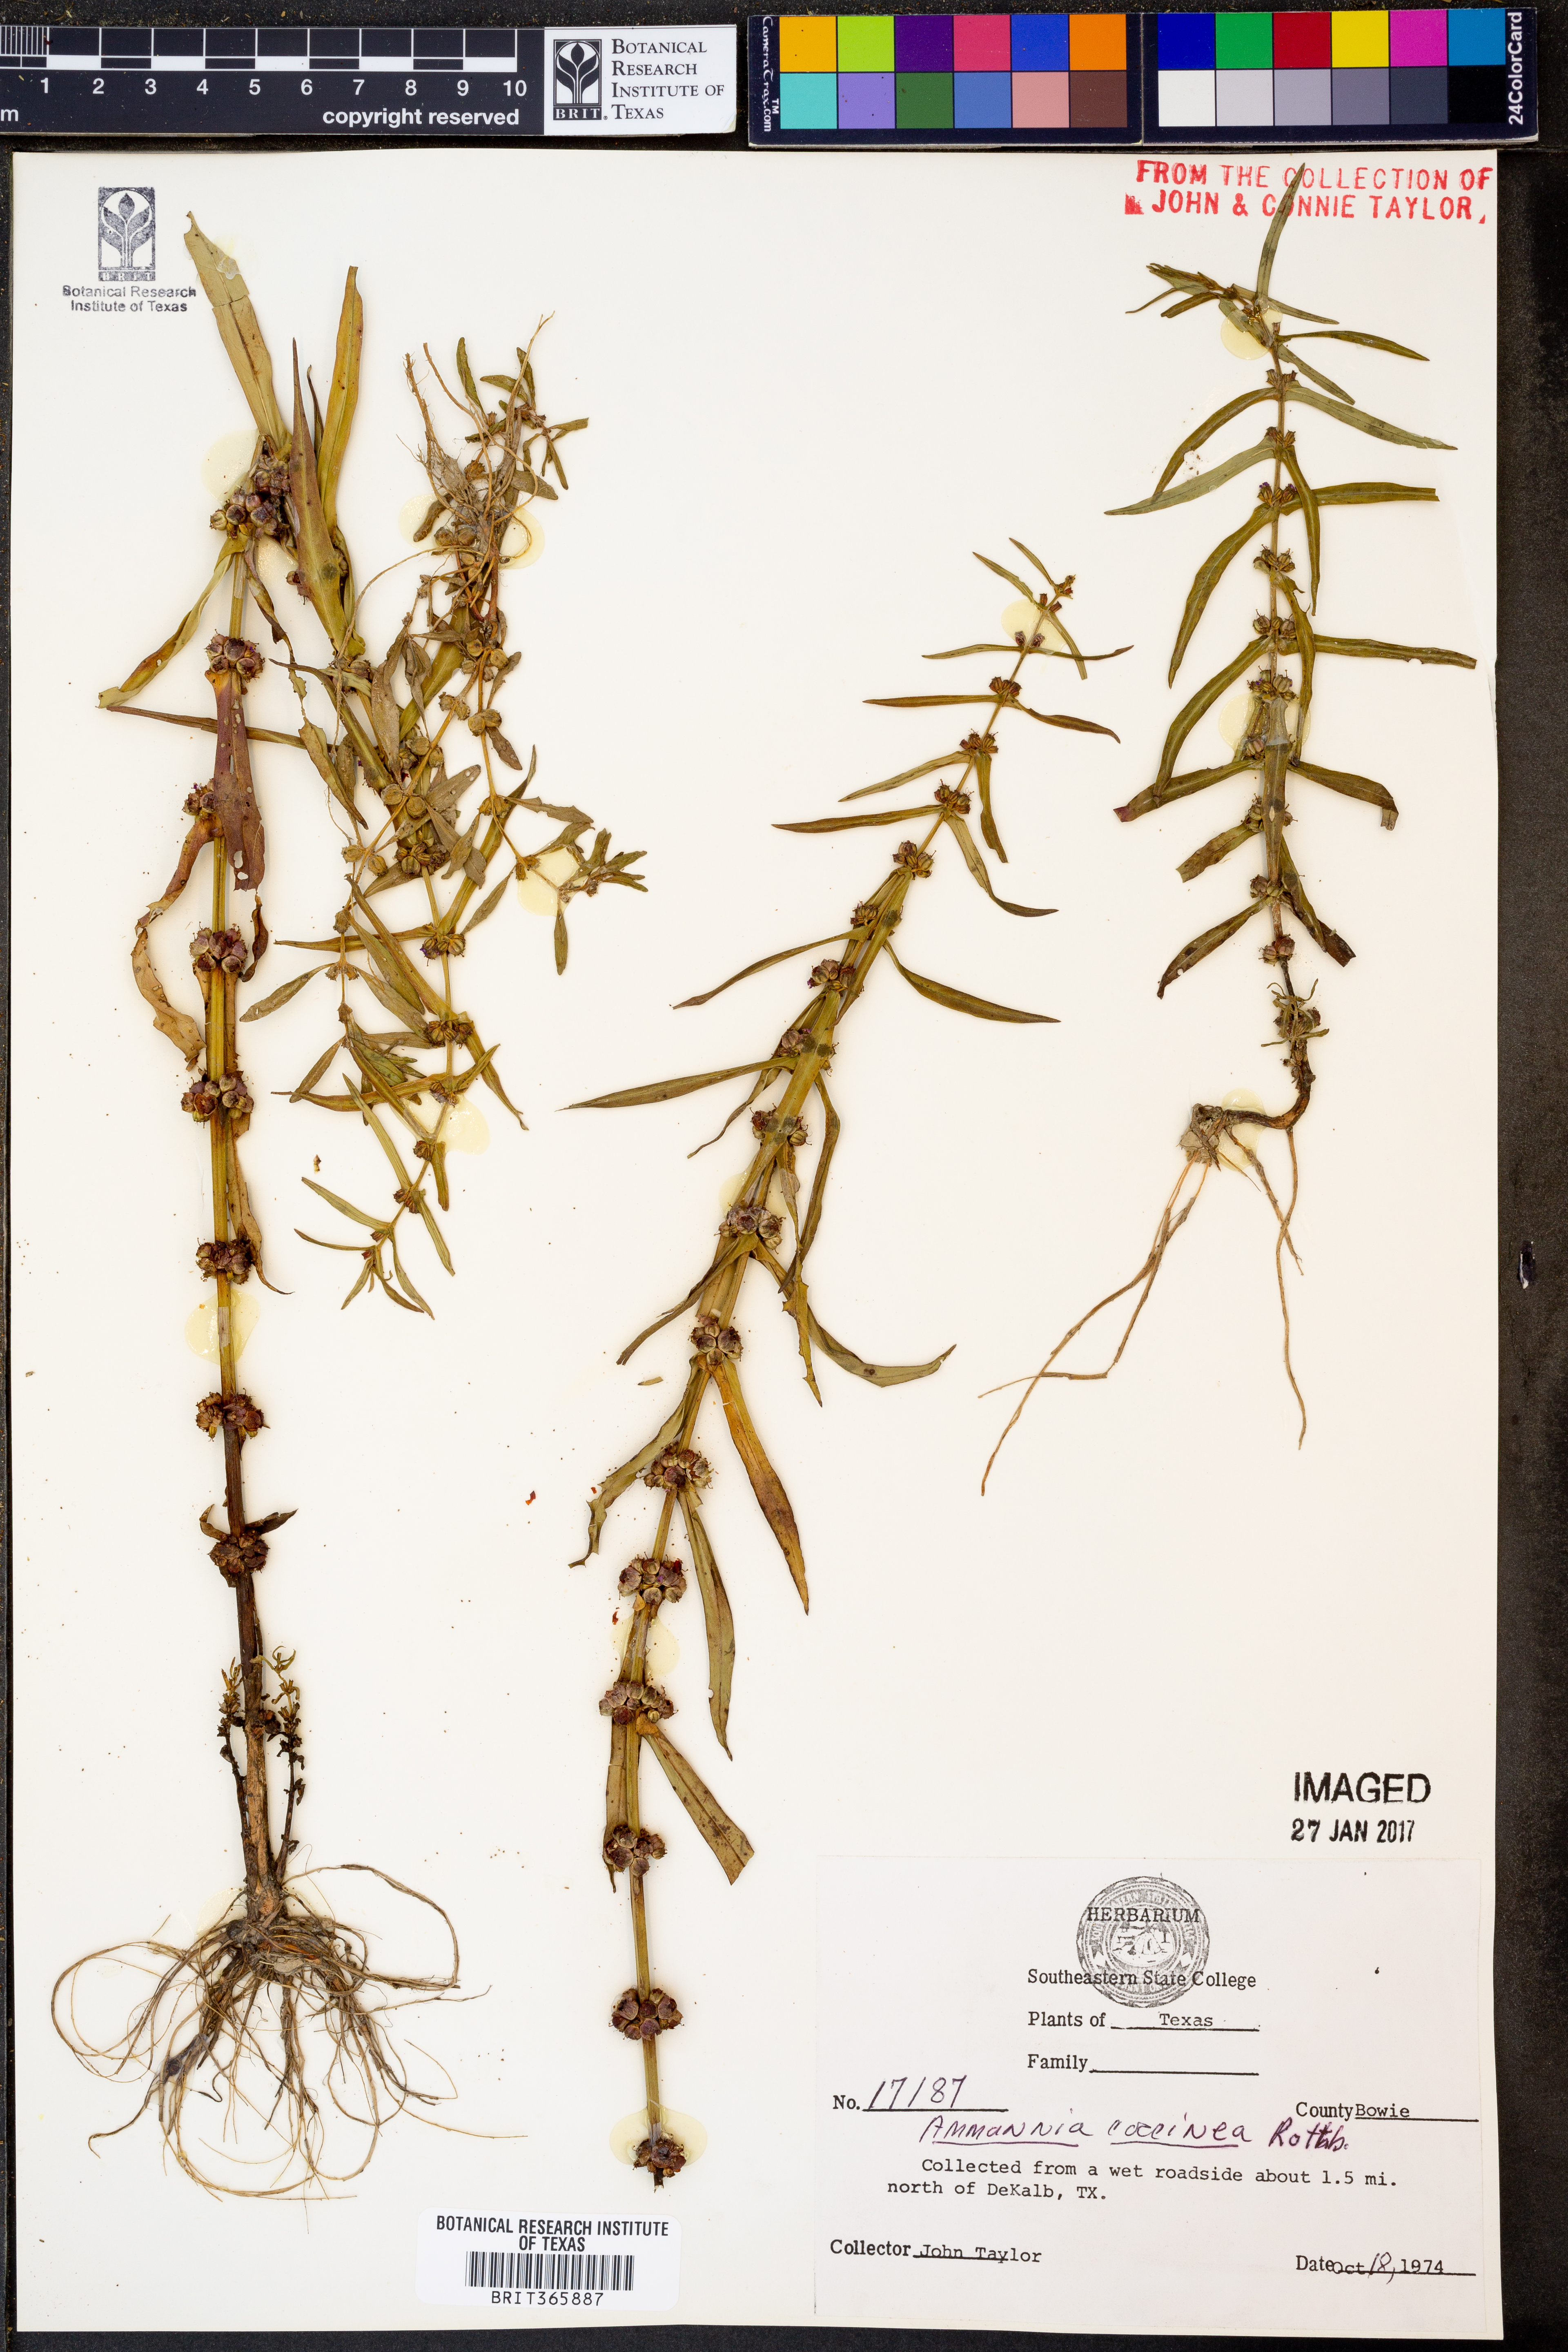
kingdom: Plantae
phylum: Tracheophyta
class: Magnoliopsida
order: Myrtales
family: Lythraceae
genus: Ammannia
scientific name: Ammannia coccinea
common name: Valley redstem
